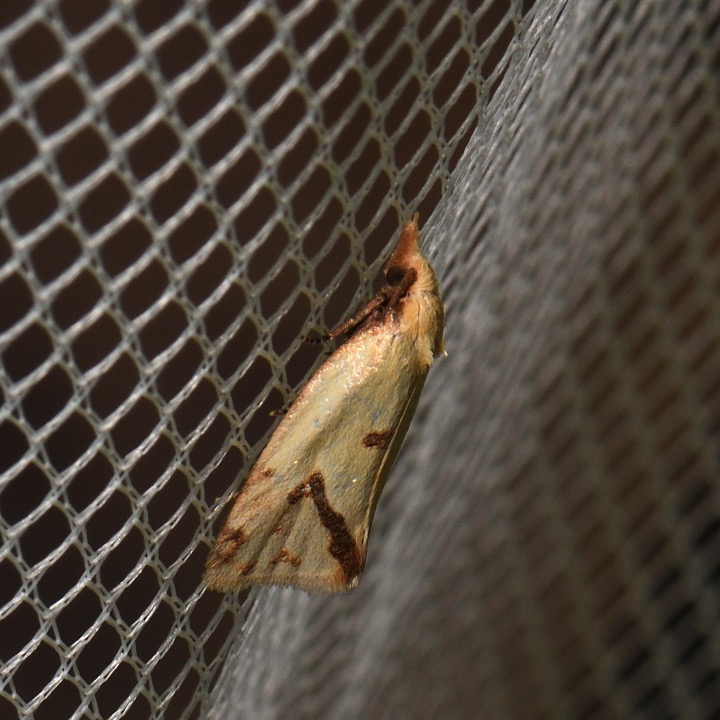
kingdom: Animalia
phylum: Arthropoda
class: Insecta
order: Lepidoptera
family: Tortricidae
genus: Agapeta
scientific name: Agapeta hamana
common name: Tidselgulvikler
